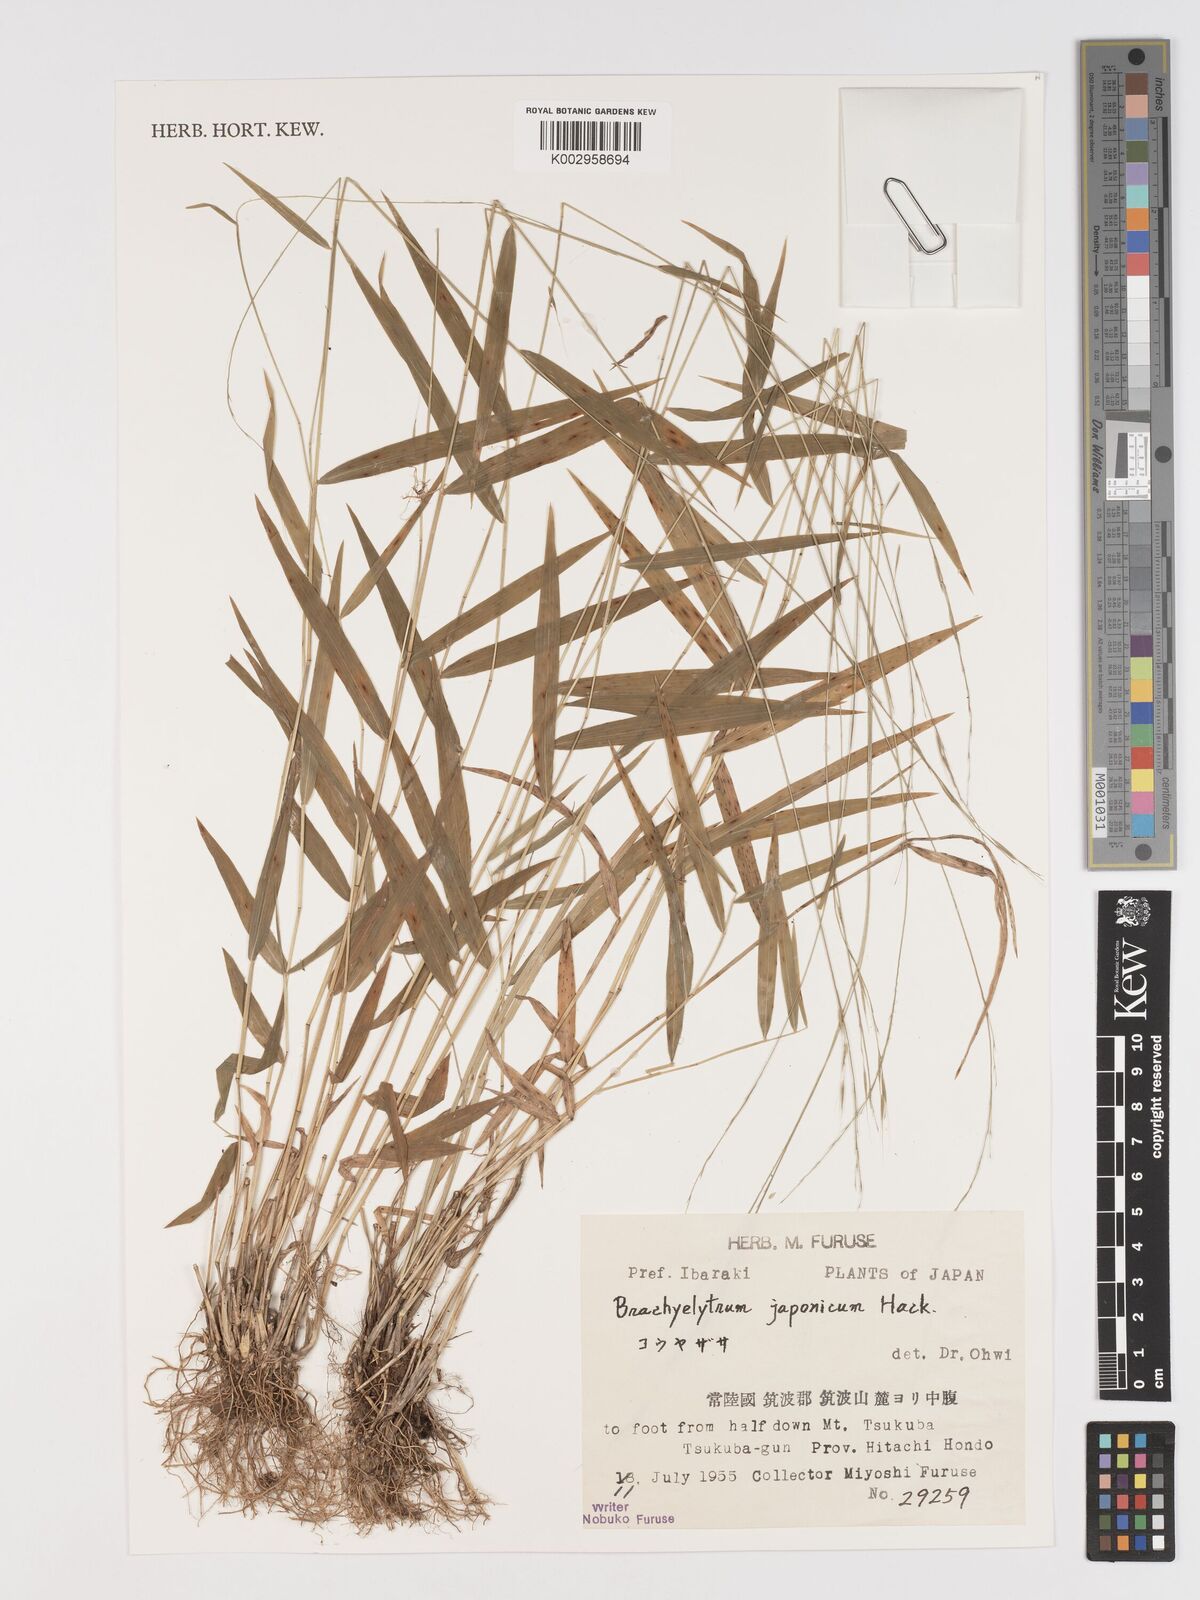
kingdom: Plantae
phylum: Tracheophyta
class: Liliopsida
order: Poales
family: Poaceae
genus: Brachyelytrum
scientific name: Brachyelytrum japonicum
